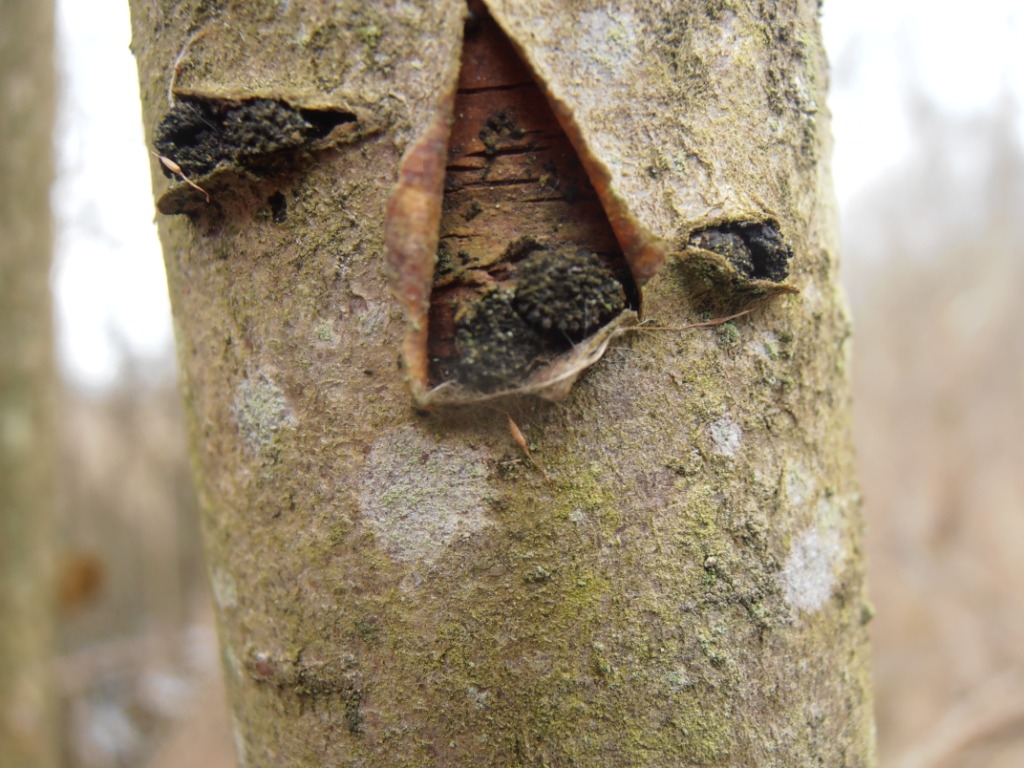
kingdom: Fungi
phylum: Ascomycota
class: Sordariomycetes
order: Xylariales
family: Diatrypaceae
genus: Eutypella
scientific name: Eutypella sorbi
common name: rønne-kulskorpe
